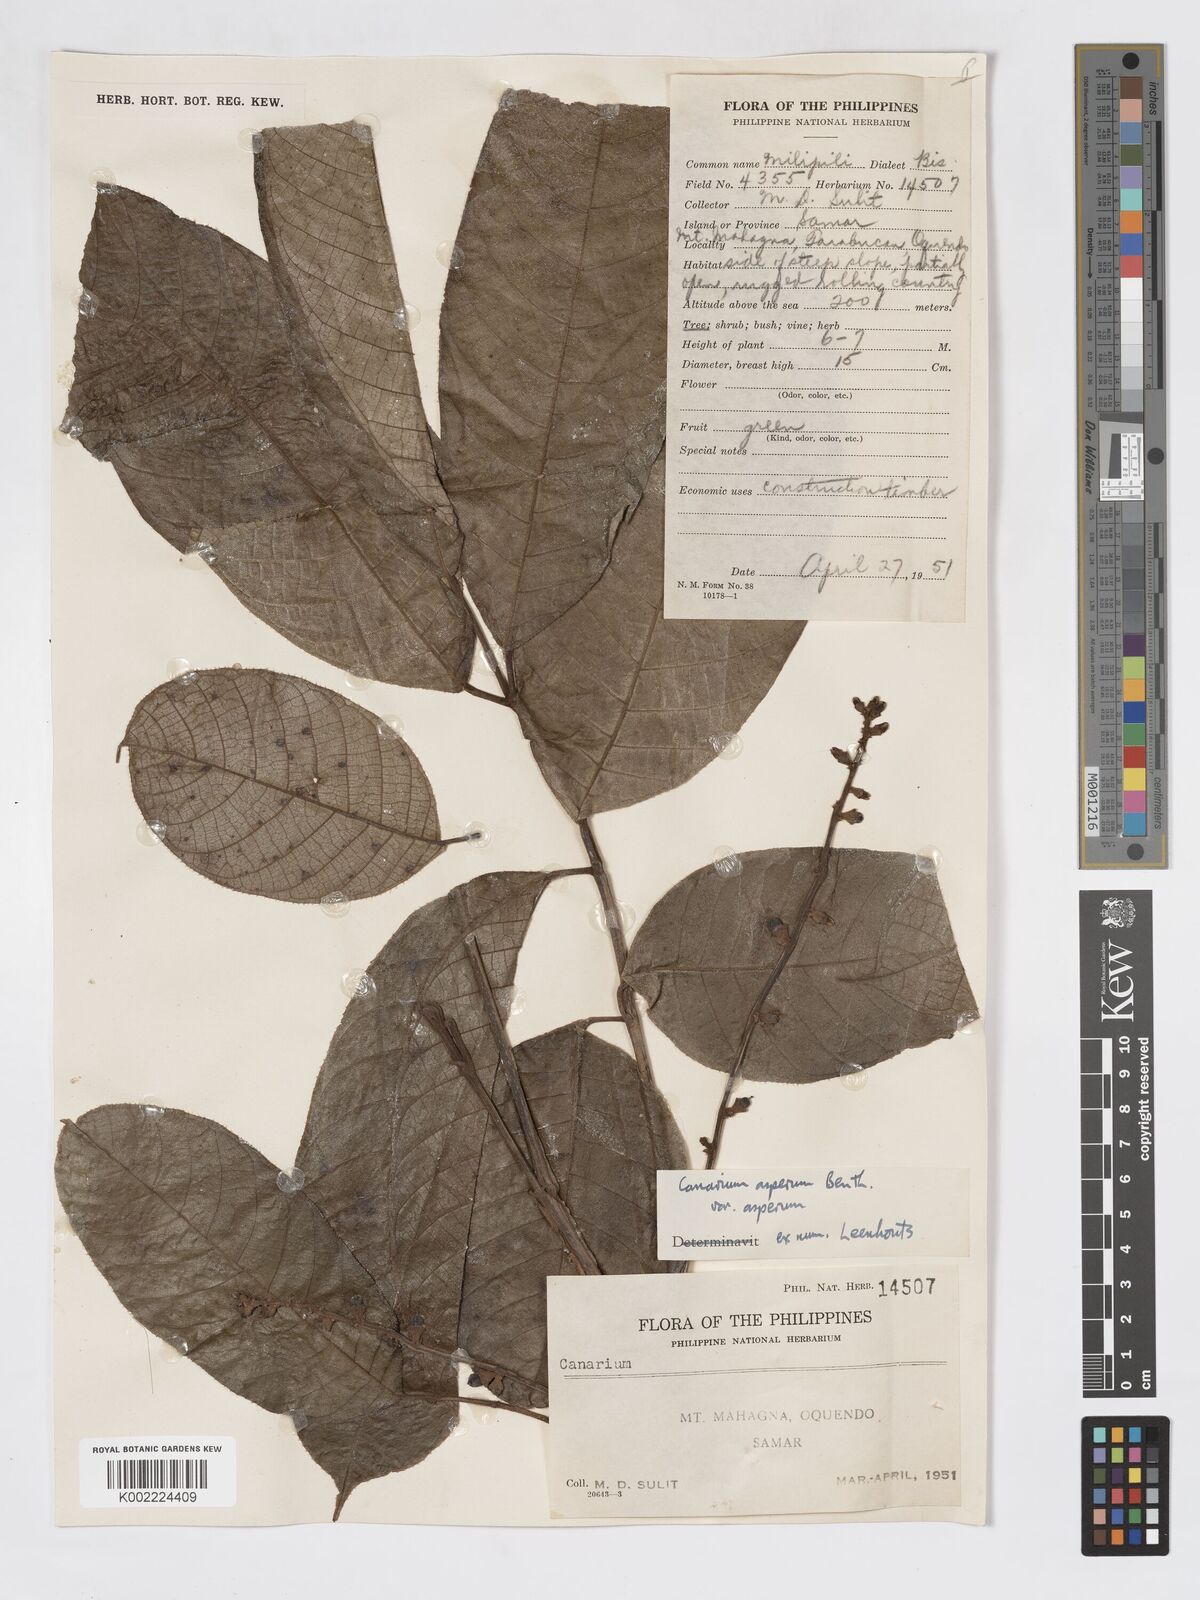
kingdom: Plantae
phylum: Tracheophyta
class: Magnoliopsida
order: Sapindales
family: Burseraceae
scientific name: Burseraceae
